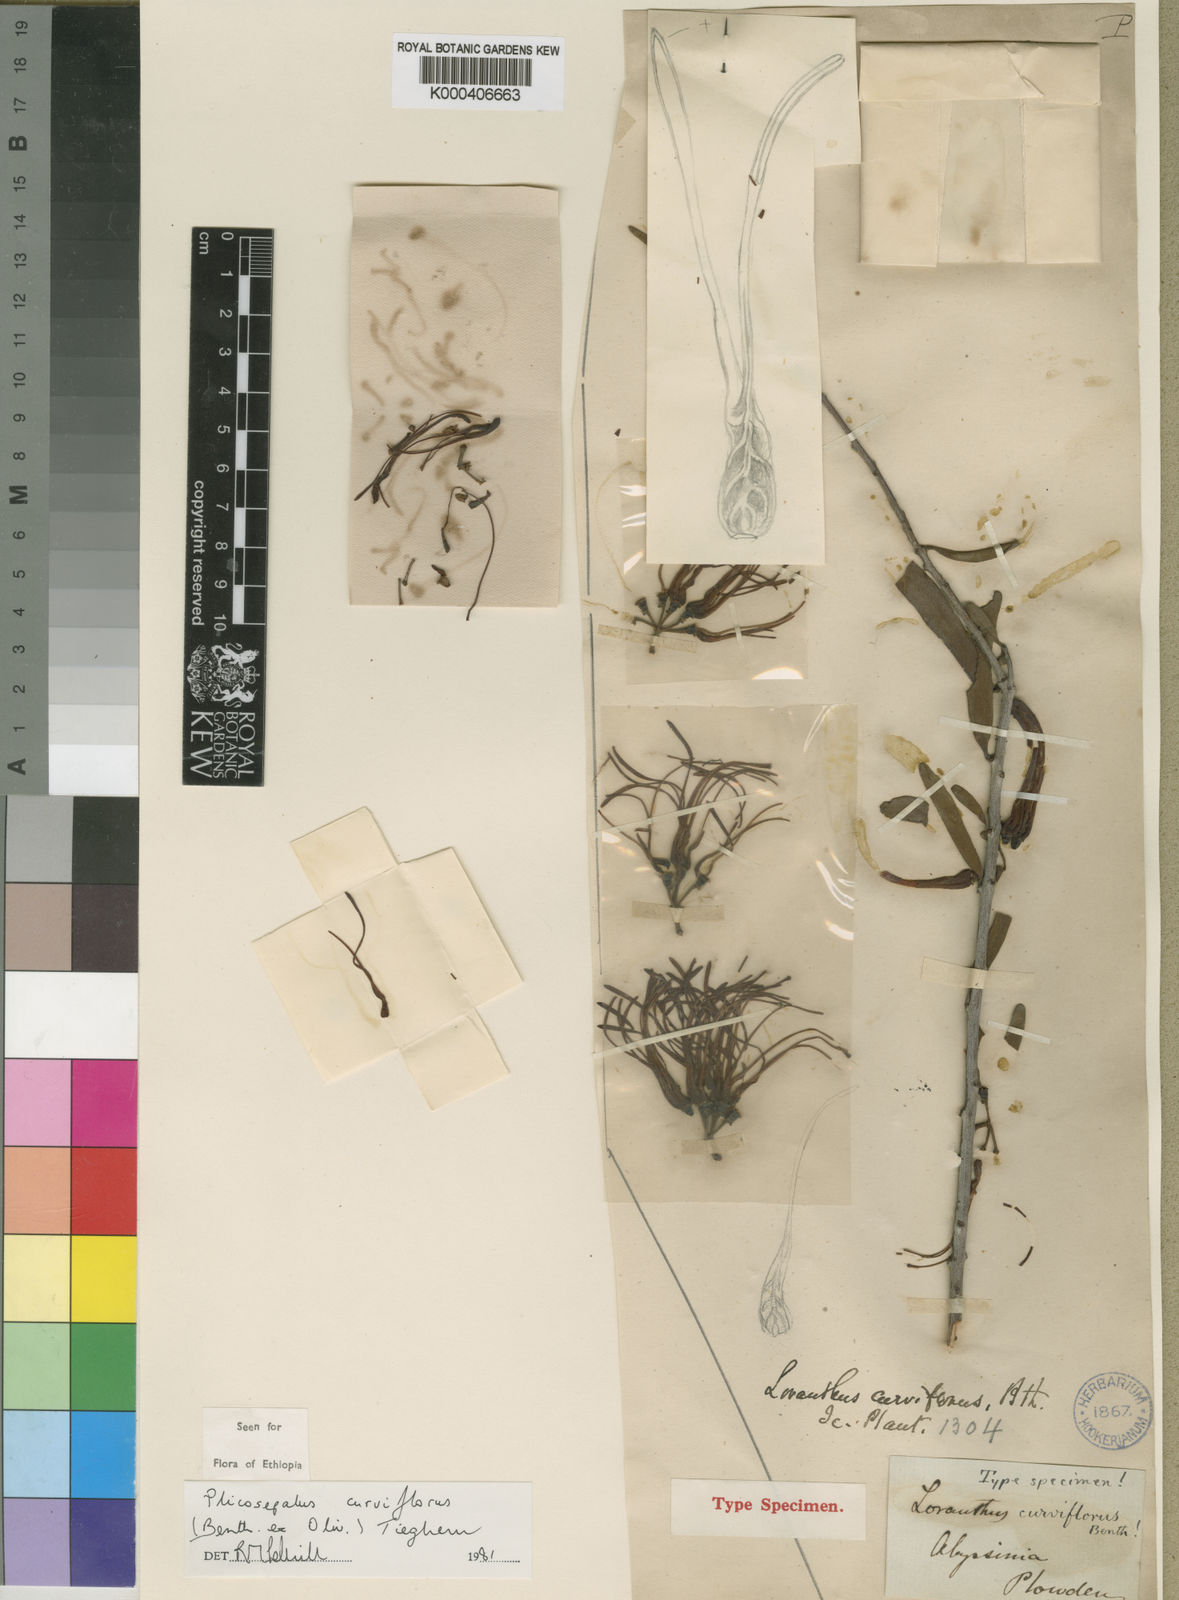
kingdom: Plantae
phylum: Tracheophyta
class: Magnoliopsida
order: Santalales
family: Loranthaceae
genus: Plicosepalus
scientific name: Plicosepalus curviflorus
